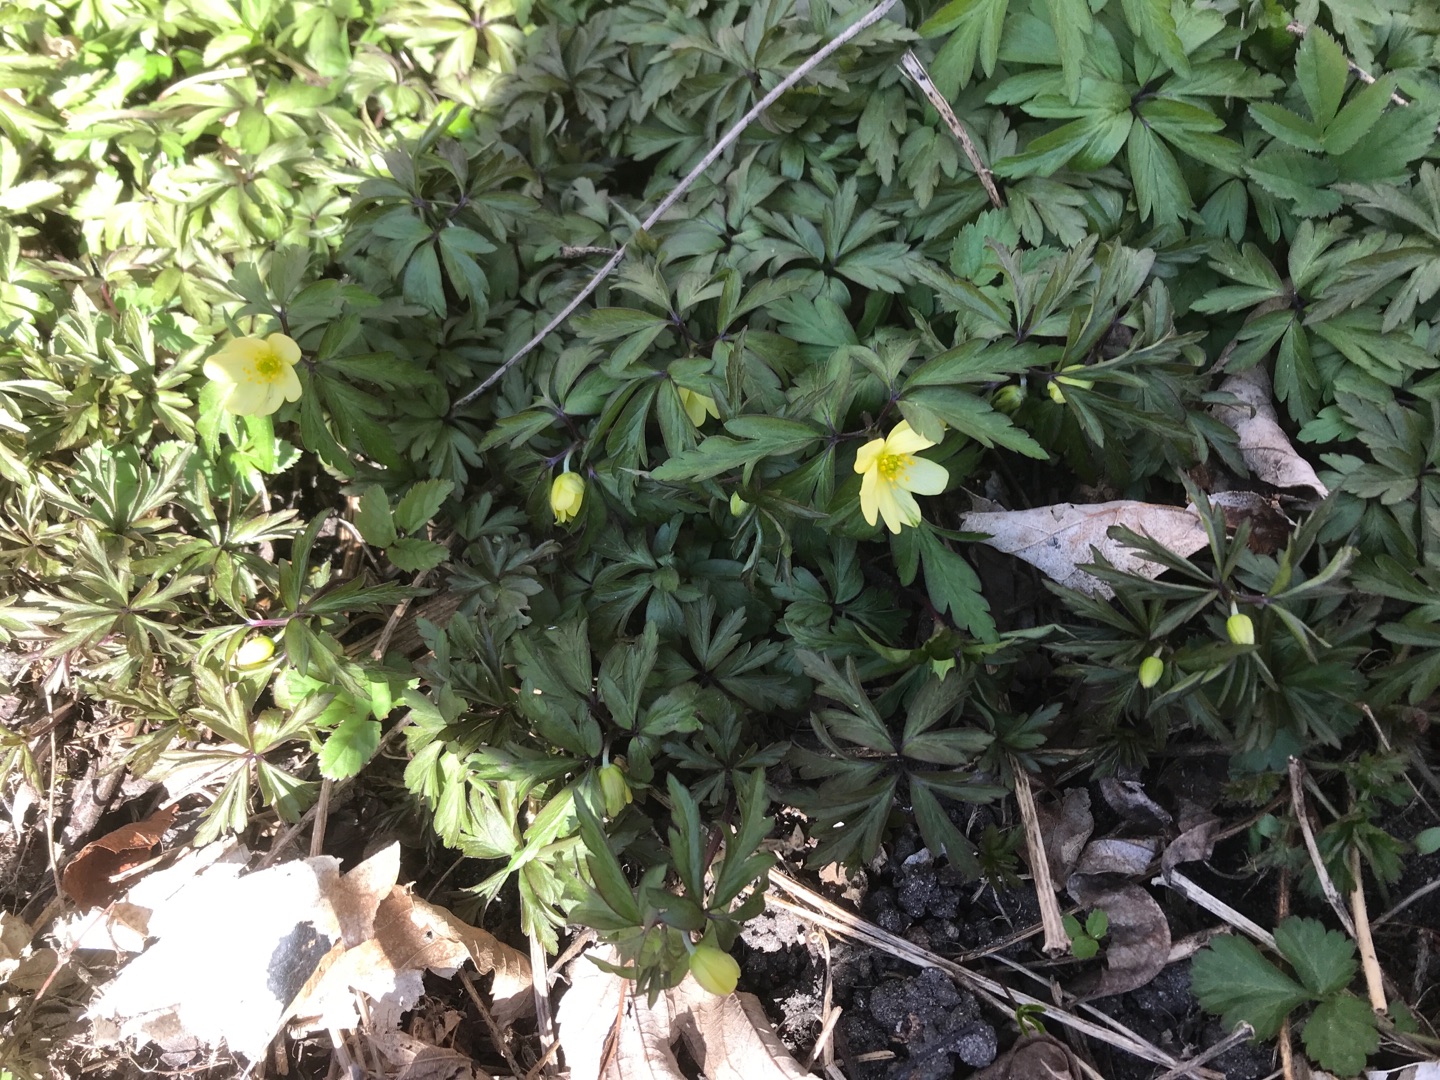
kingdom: Plantae
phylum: Tracheophyta
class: Magnoliopsida
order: Ranunculales
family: Ranunculaceae
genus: Anemone
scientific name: Anemone
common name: Svovlgul anemone
